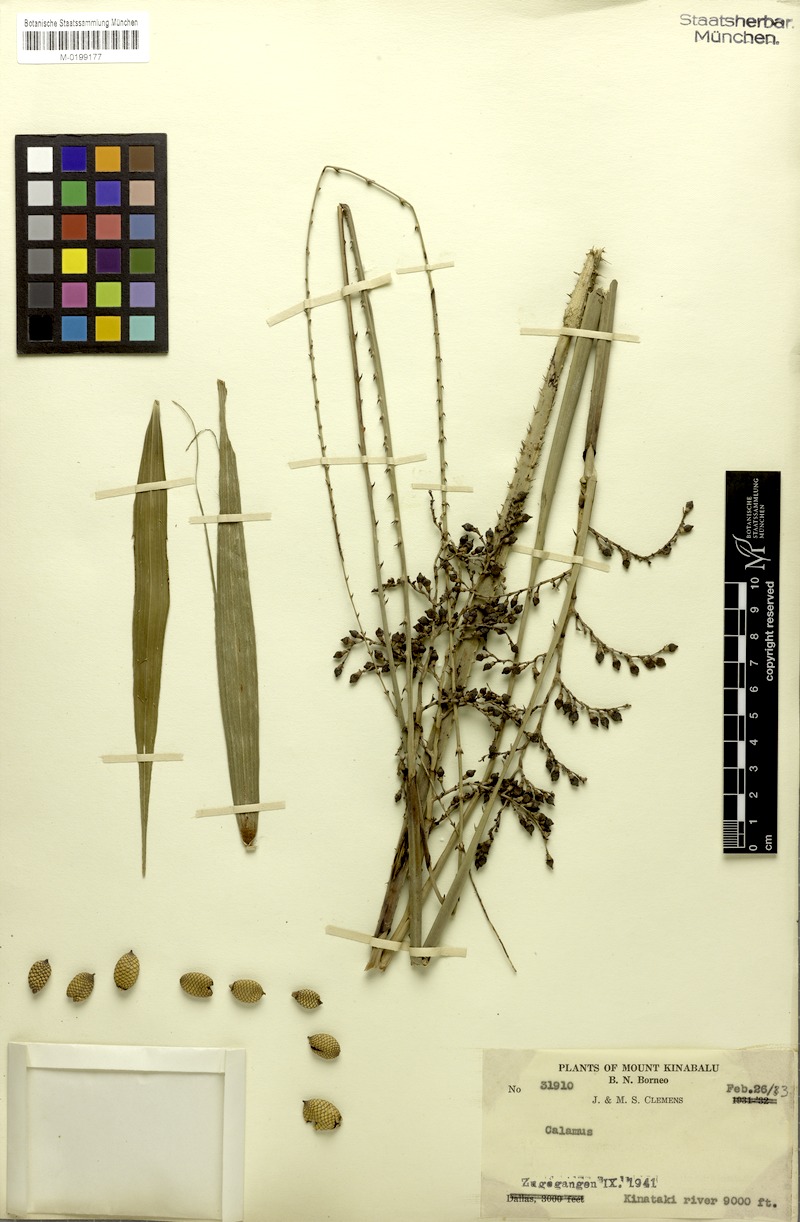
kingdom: Plantae
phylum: Tracheophyta
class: Liliopsida
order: Arecales
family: Arecaceae
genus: Calamus
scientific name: Calamus gibbsianus
